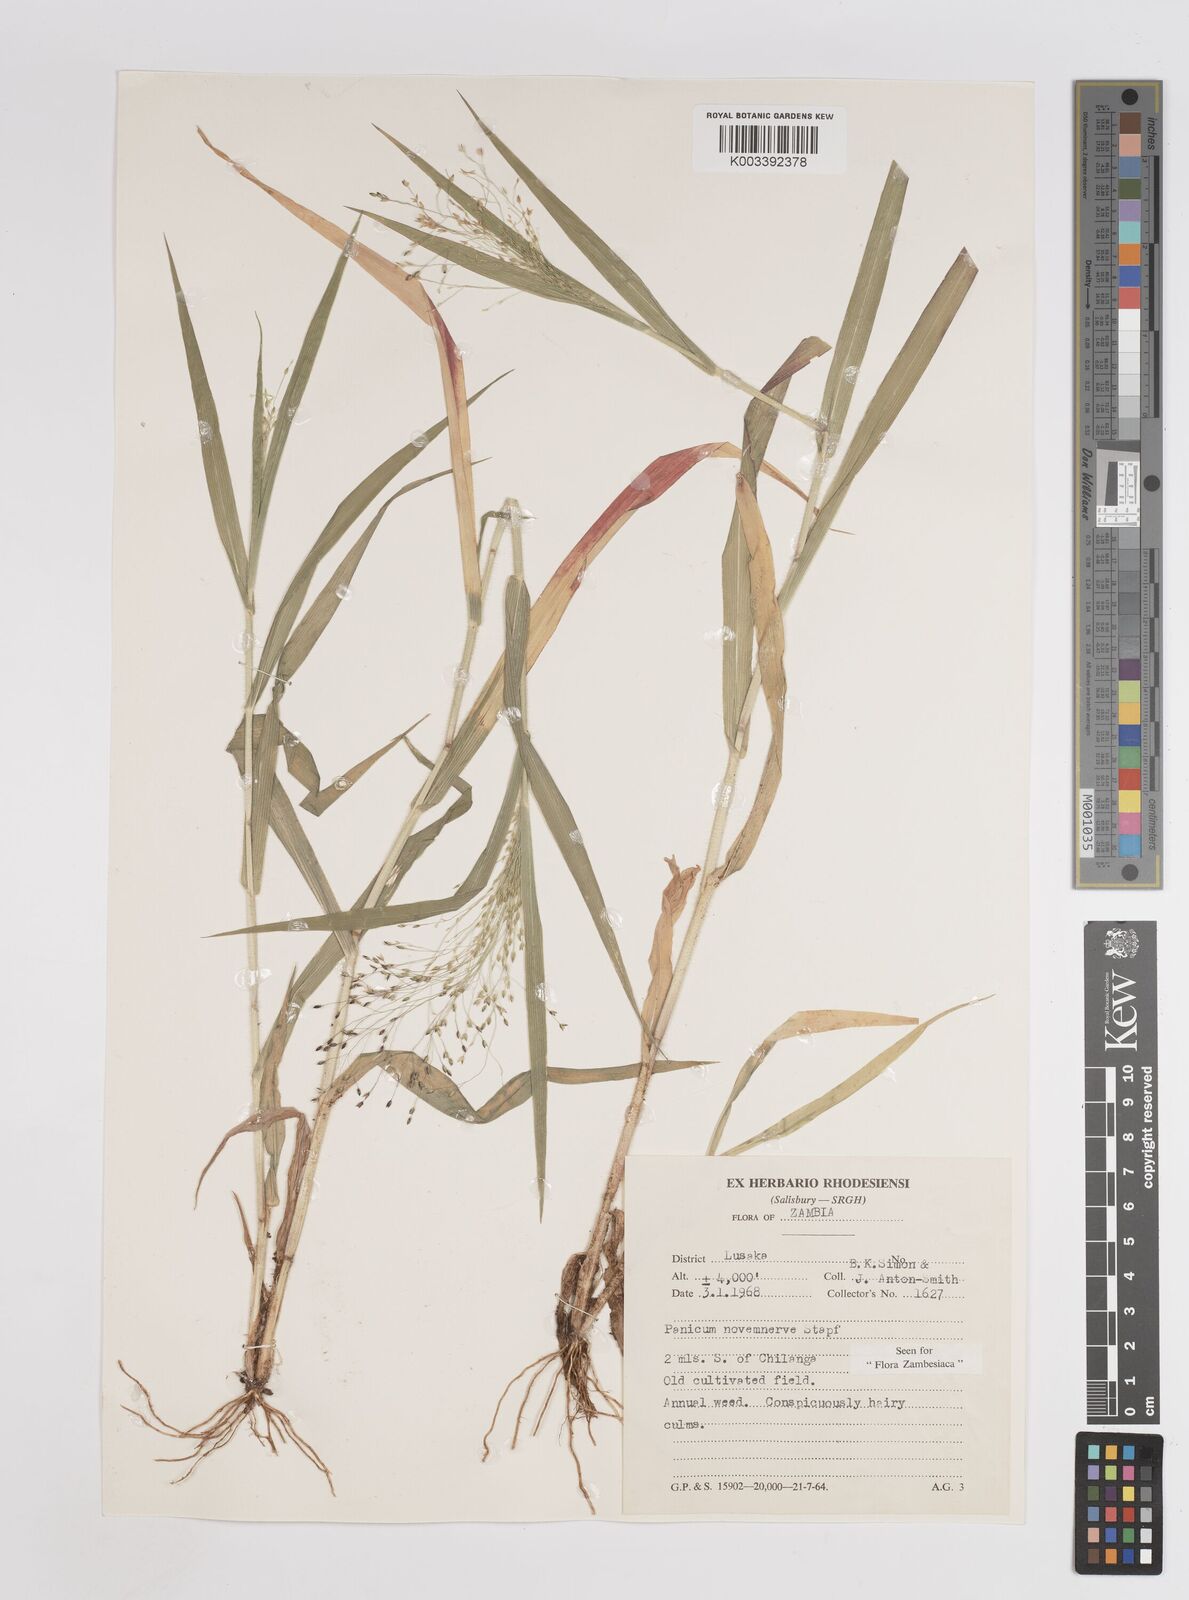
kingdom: Plantae
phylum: Tracheophyta
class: Liliopsida
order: Poales
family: Poaceae
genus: Panicum
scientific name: Panicum novemnerve
